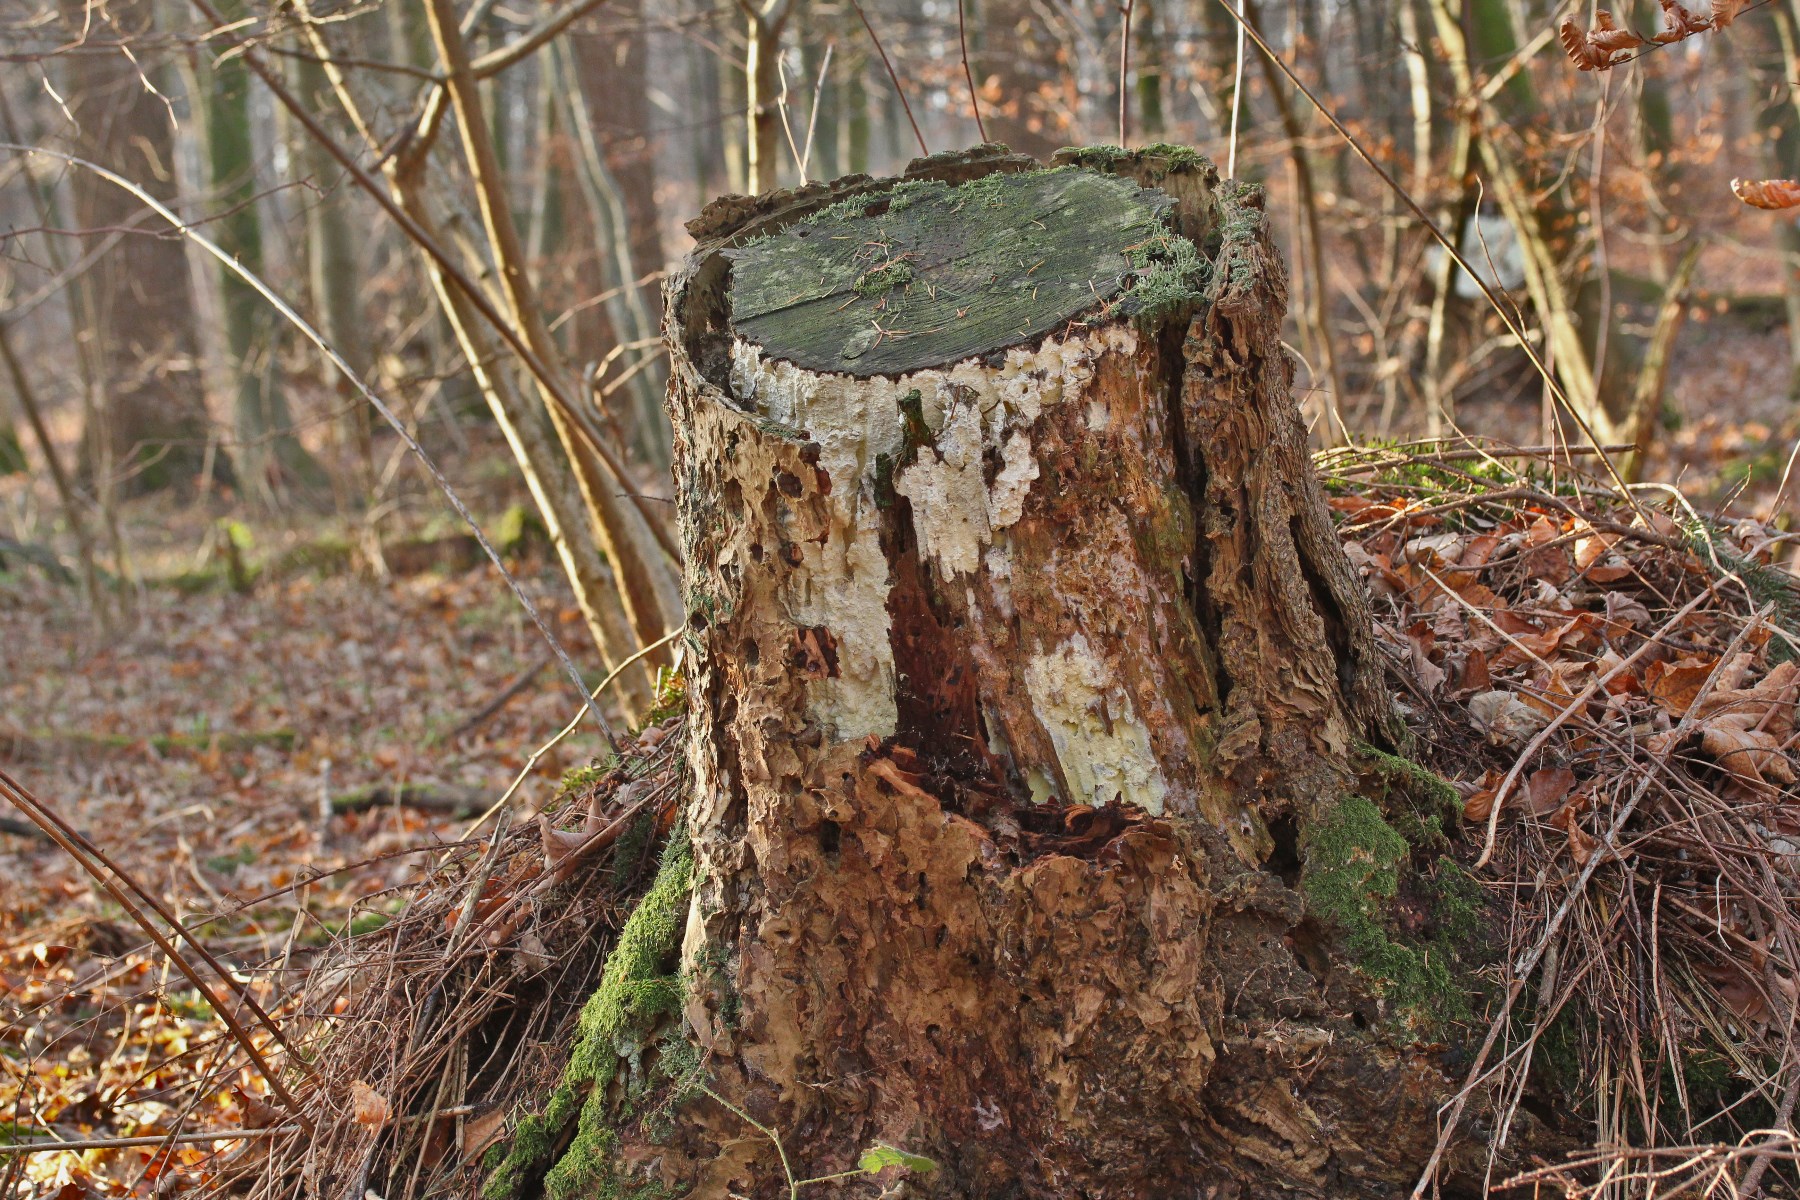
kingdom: Fungi
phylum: Basidiomycota
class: Agaricomycetes
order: Polyporales
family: Fomitopsidaceae
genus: Daedalea
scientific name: Daedalea xantha
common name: gul sejporesvamp
